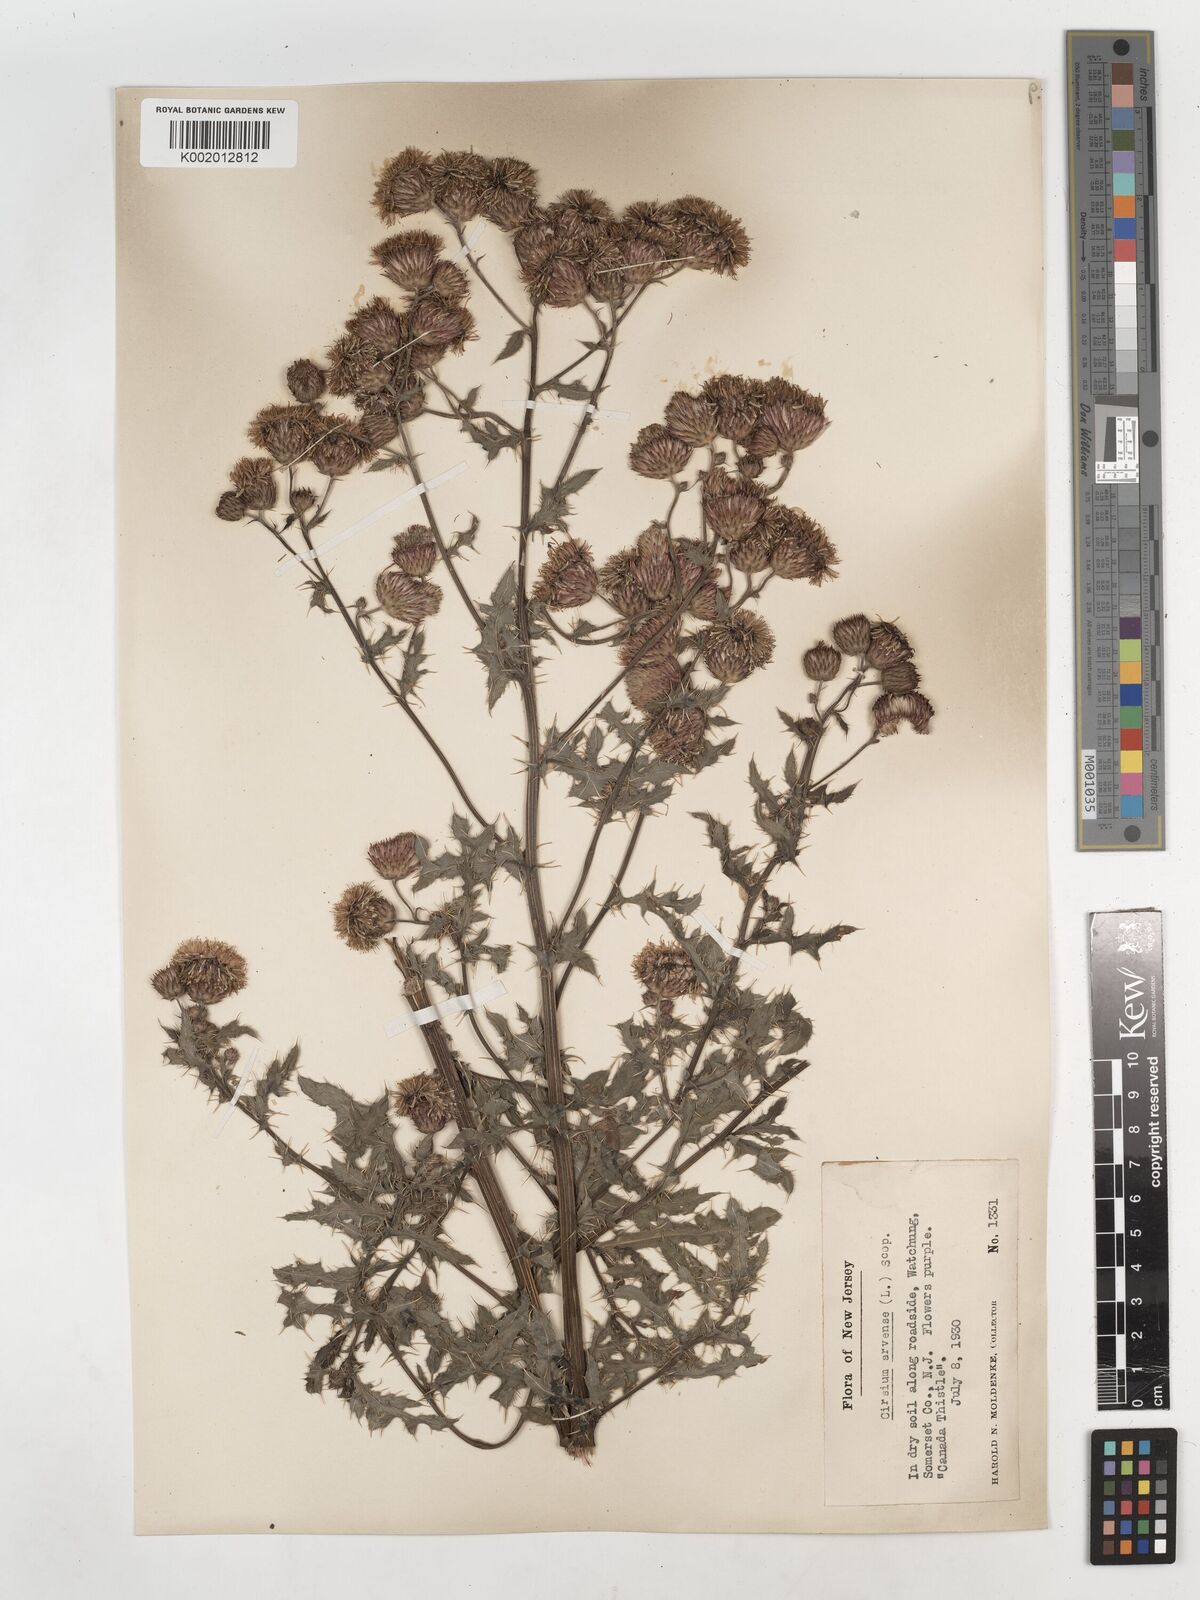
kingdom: Plantae
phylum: Tracheophyta
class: Magnoliopsida
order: Asterales
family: Asteraceae
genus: Cirsium
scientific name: Cirsium arvense
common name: Creeping thistle
